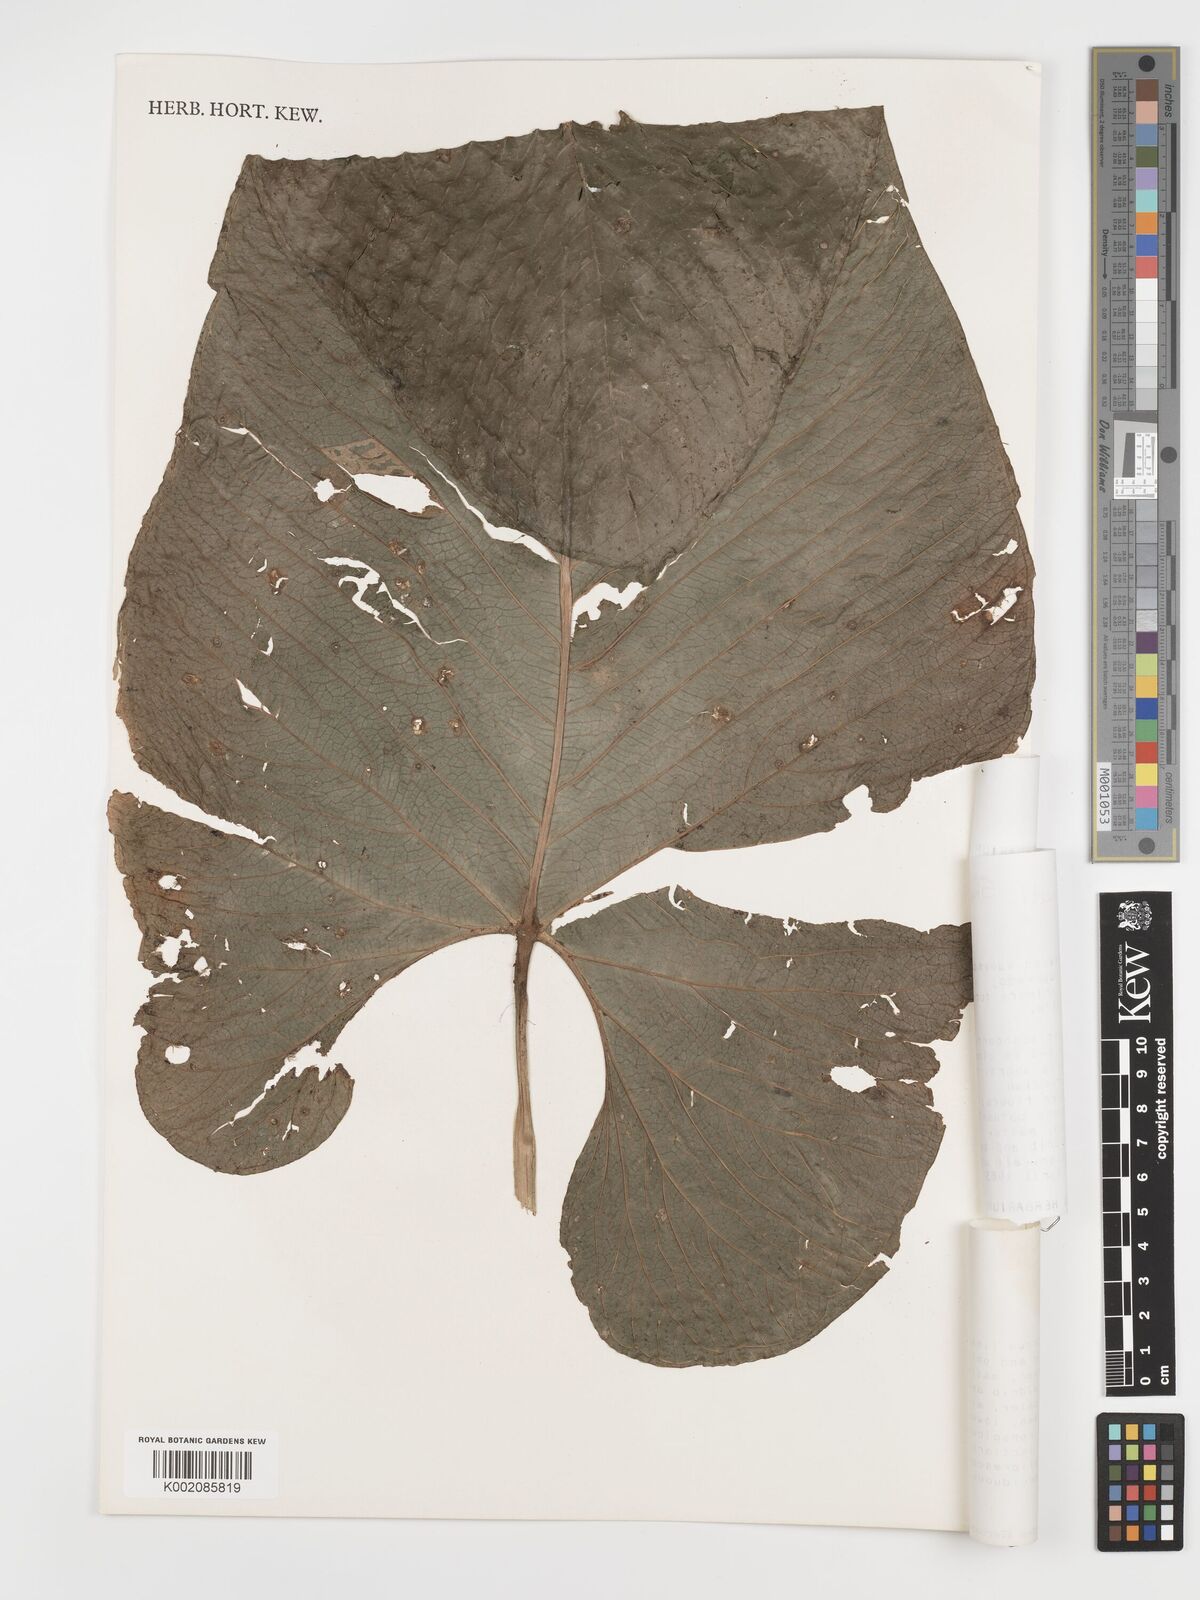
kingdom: Plantae
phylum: Tracheophyta
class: Liliopsida
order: Alismatales
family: Araceae
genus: Anthurium
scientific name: Anthurium corrugatum
